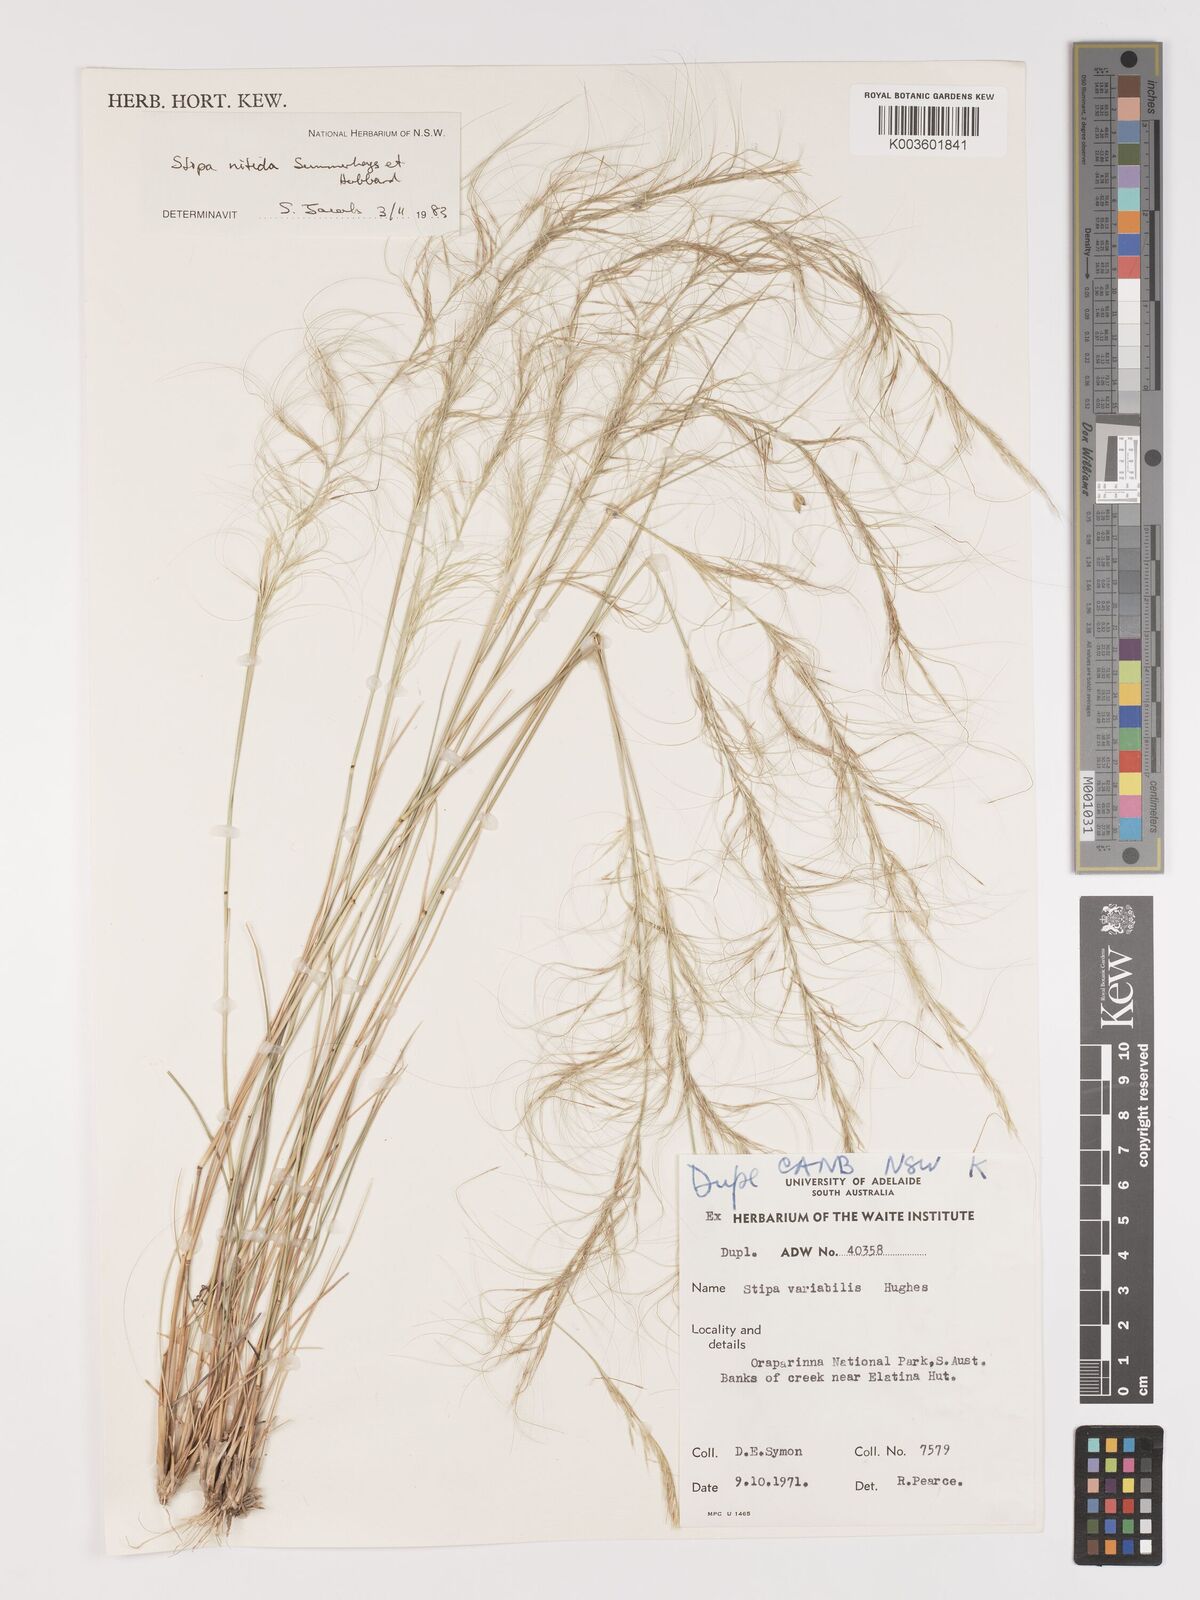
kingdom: Plantae
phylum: Tracheophyta
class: Liliopsida
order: Poales
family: Poaceae
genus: Austrostipa
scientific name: Austrostipa nitida
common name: Balcarra grass
